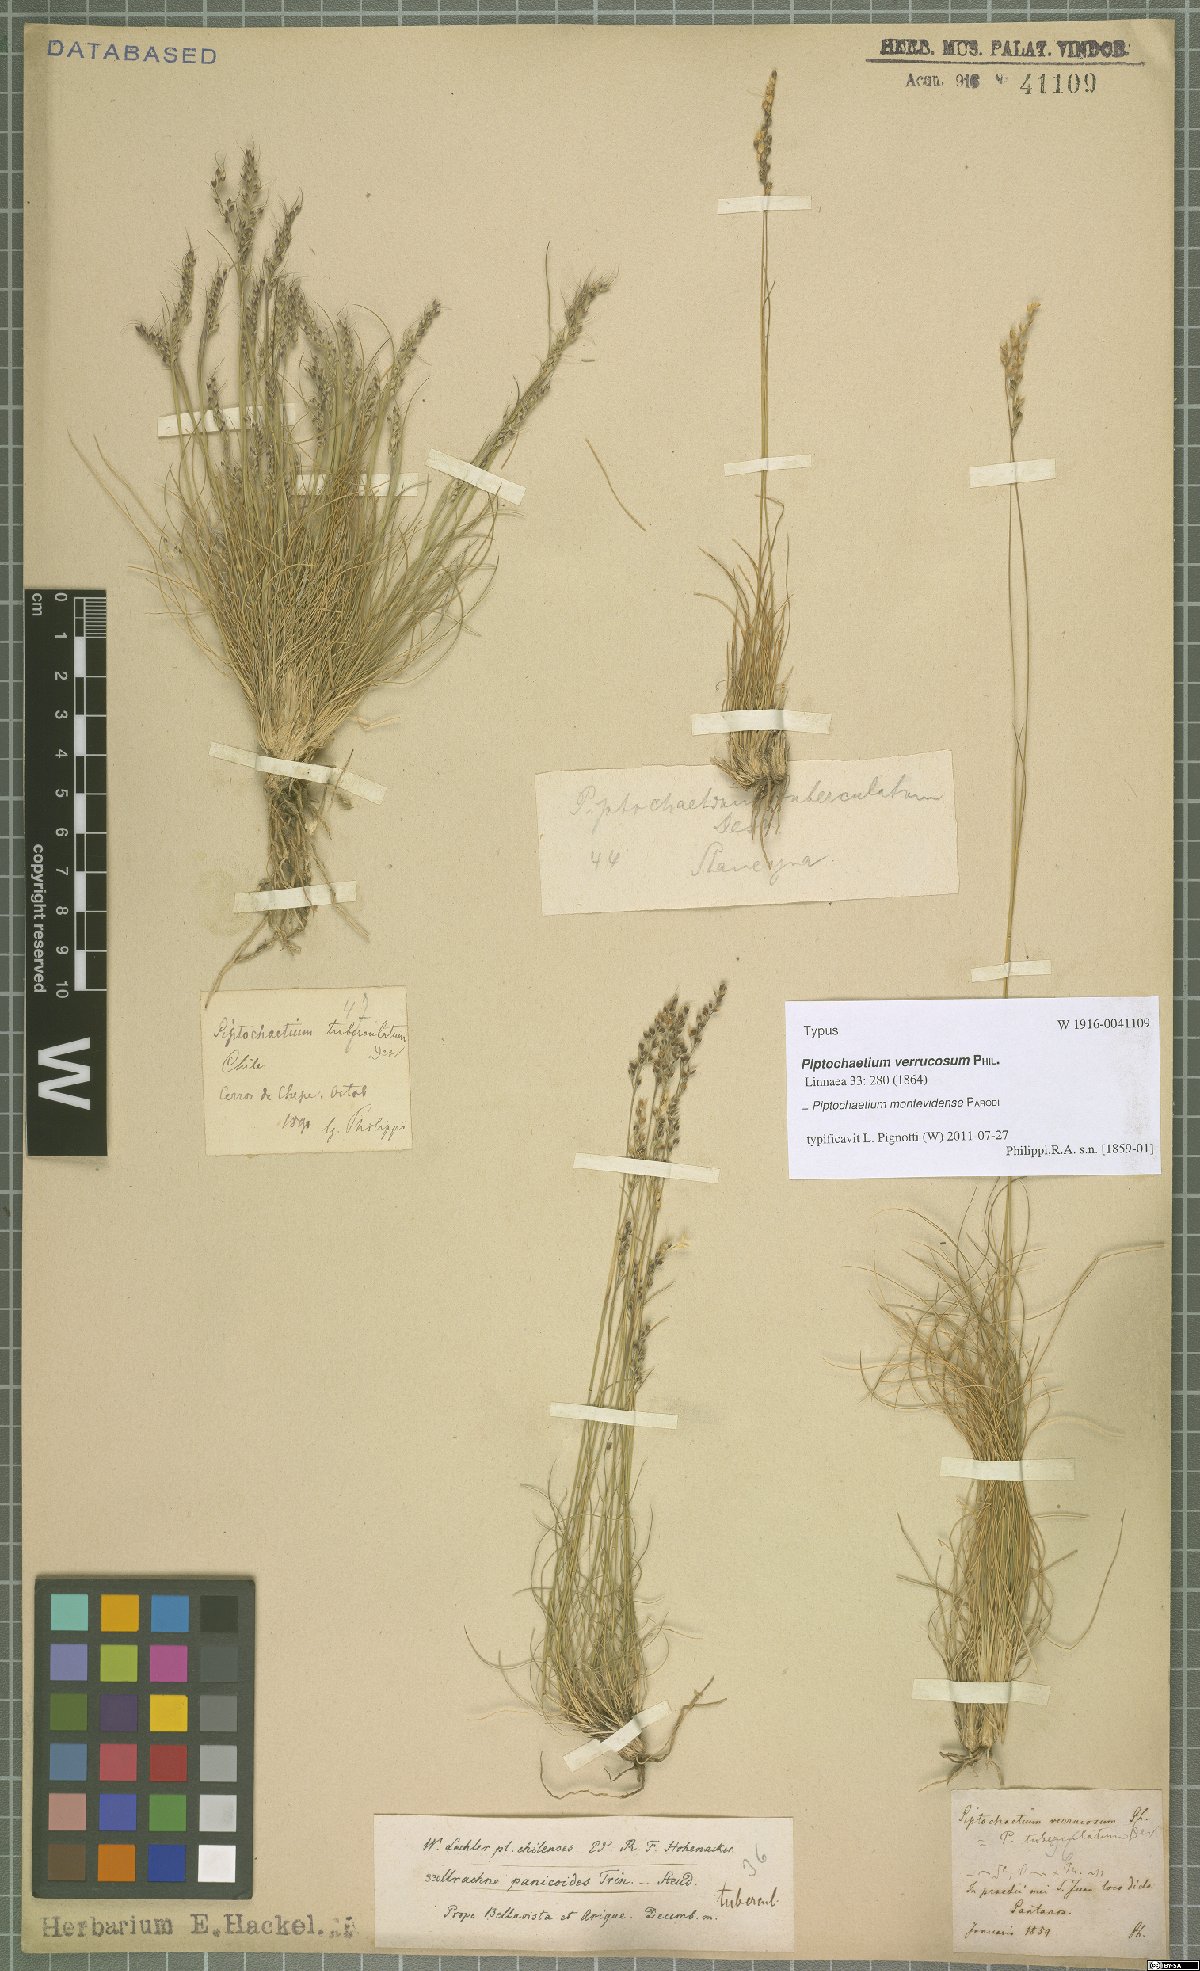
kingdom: Plantae
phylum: Tracheophyta
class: Liliopsida
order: Poales
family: Poaceae
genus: Piptochaetium
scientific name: Piptochaetium montevidense
